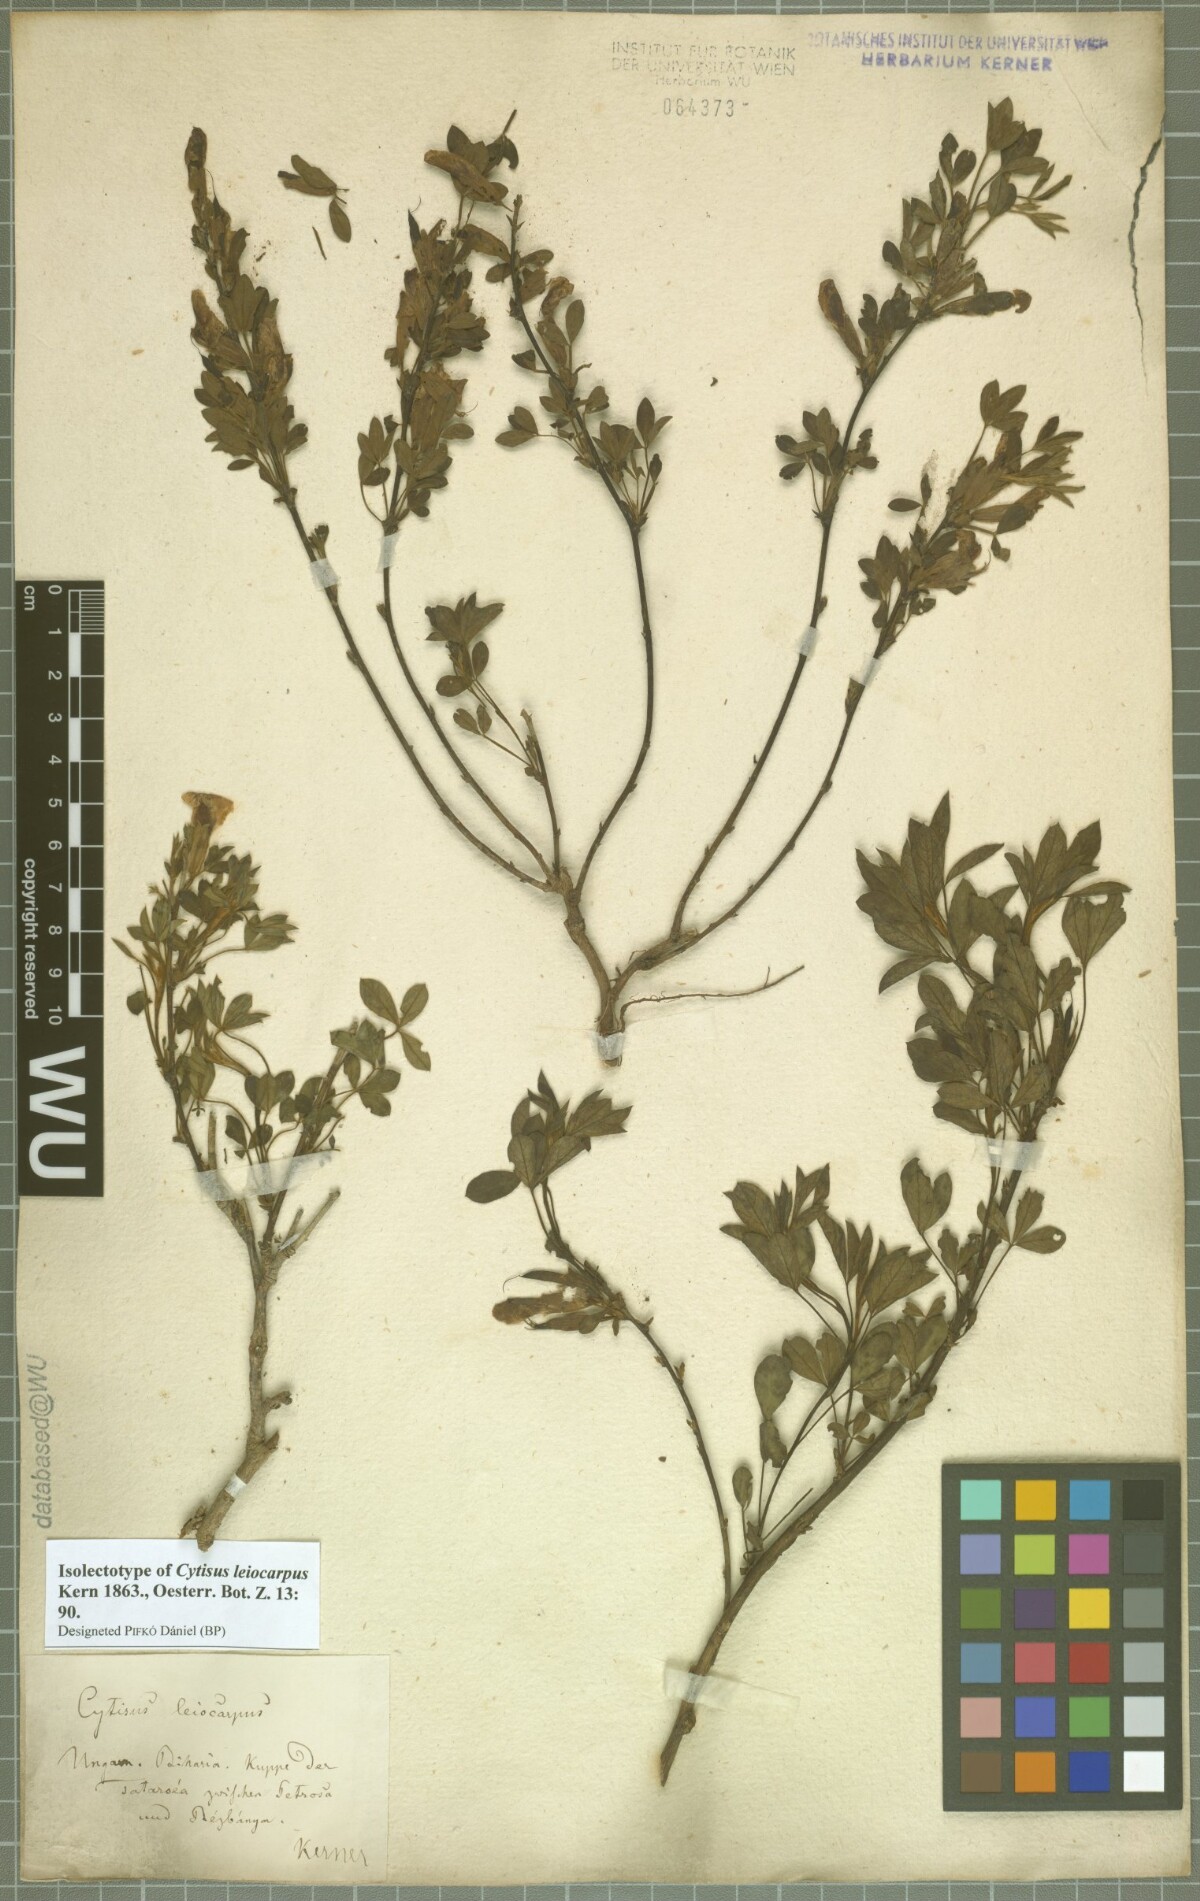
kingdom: Plantae
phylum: Tracheophyta
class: Magnoliopsida
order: Fabales
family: Fabaceae
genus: Chamaecytisus
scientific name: Chamaecytisus leiocarpus
